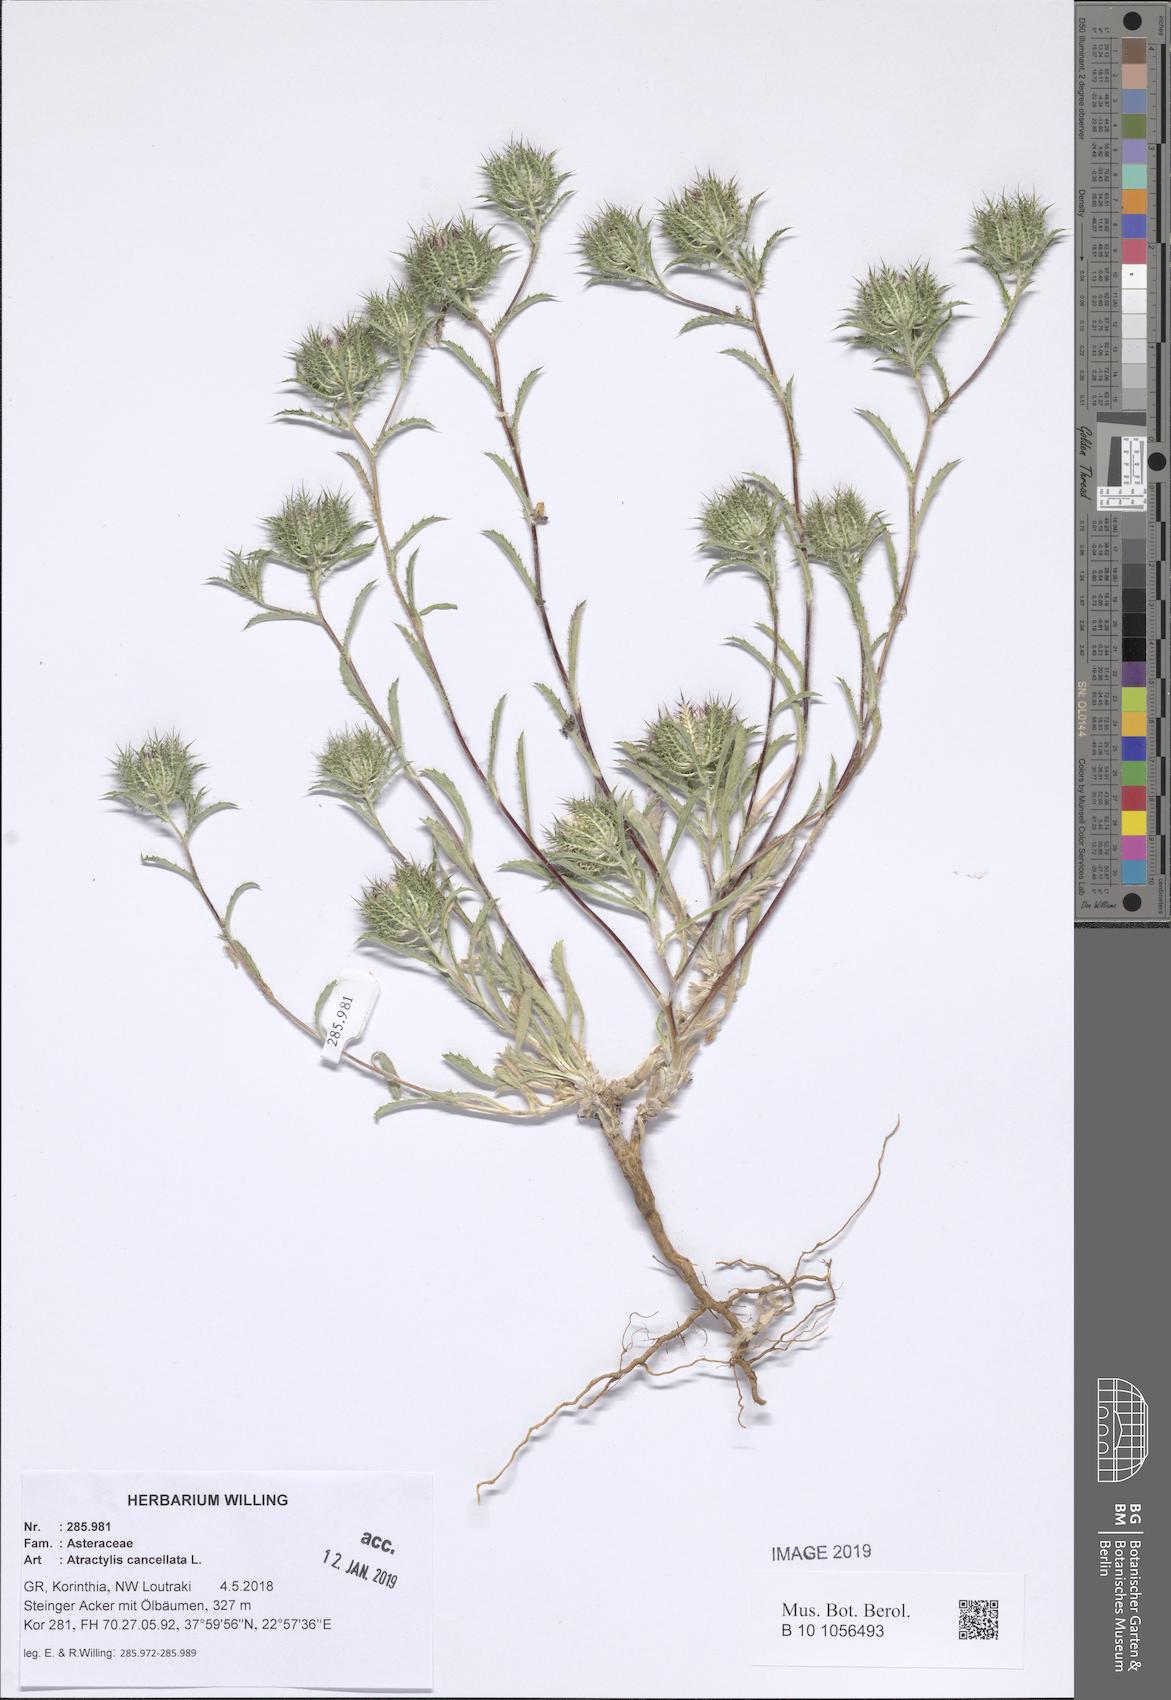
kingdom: Plantae
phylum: Tracheophyta
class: Magnoliopsida
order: Asterales
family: Asteraceae
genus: Atractylis
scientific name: Atractylis cancellata
